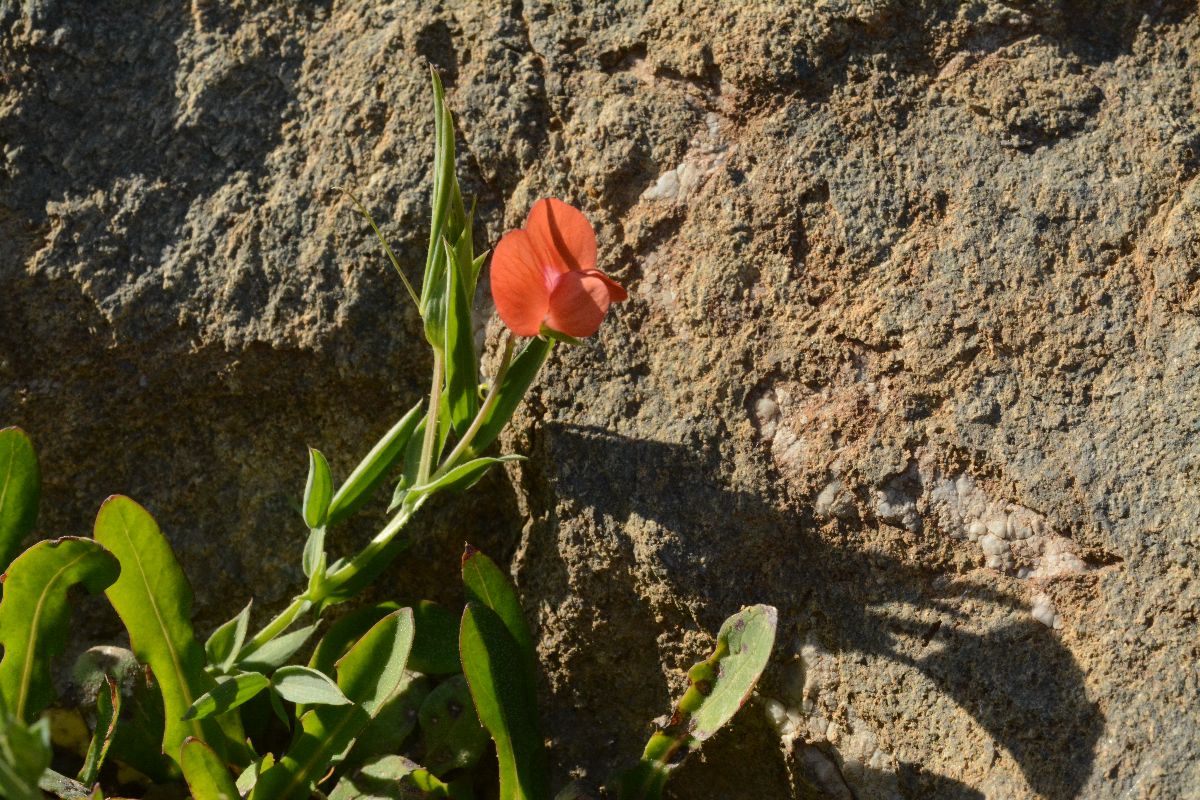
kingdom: Plantae
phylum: Tracheophyta
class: Magnoliopsida
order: Fabales
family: Fabaceae
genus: Lathyrus
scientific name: Lathyrus amphicarpos
